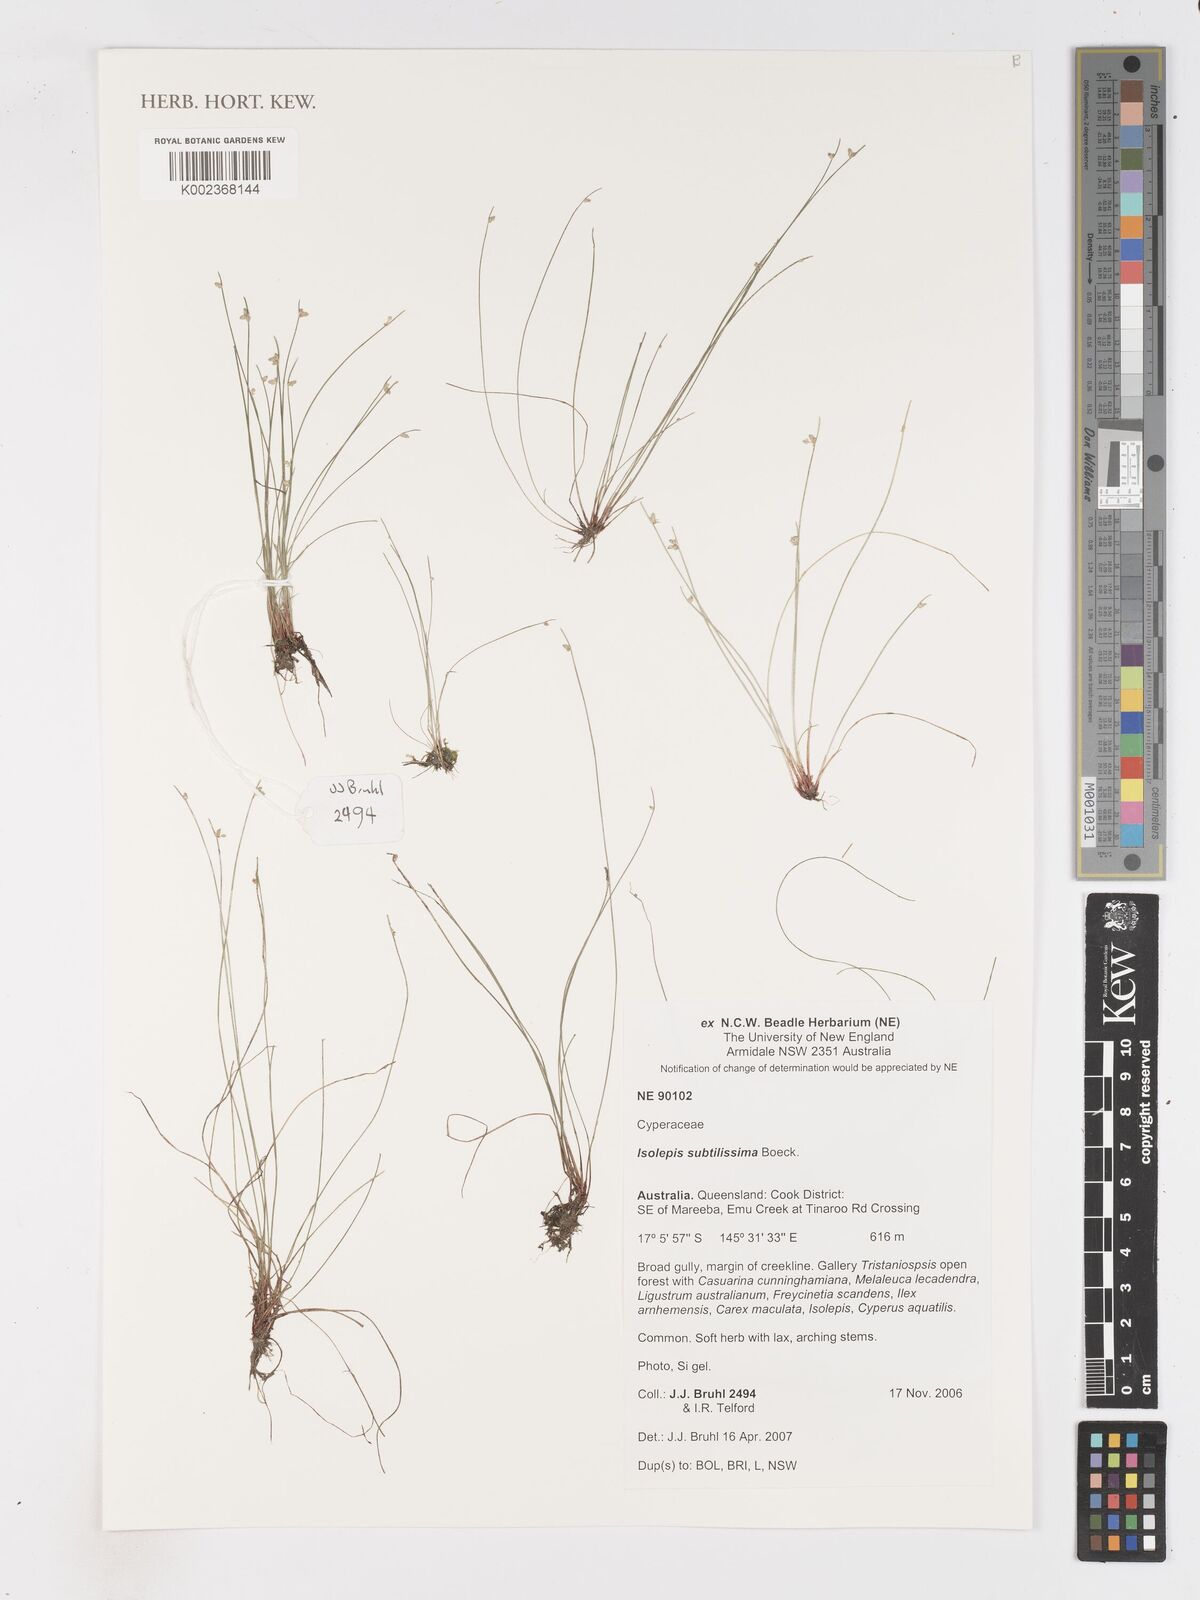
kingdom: Plantae
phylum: Tracheophyta
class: Liliopsida
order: Poales
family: Cyperaceae
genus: Isolepis
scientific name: Isolepis subtilissima
